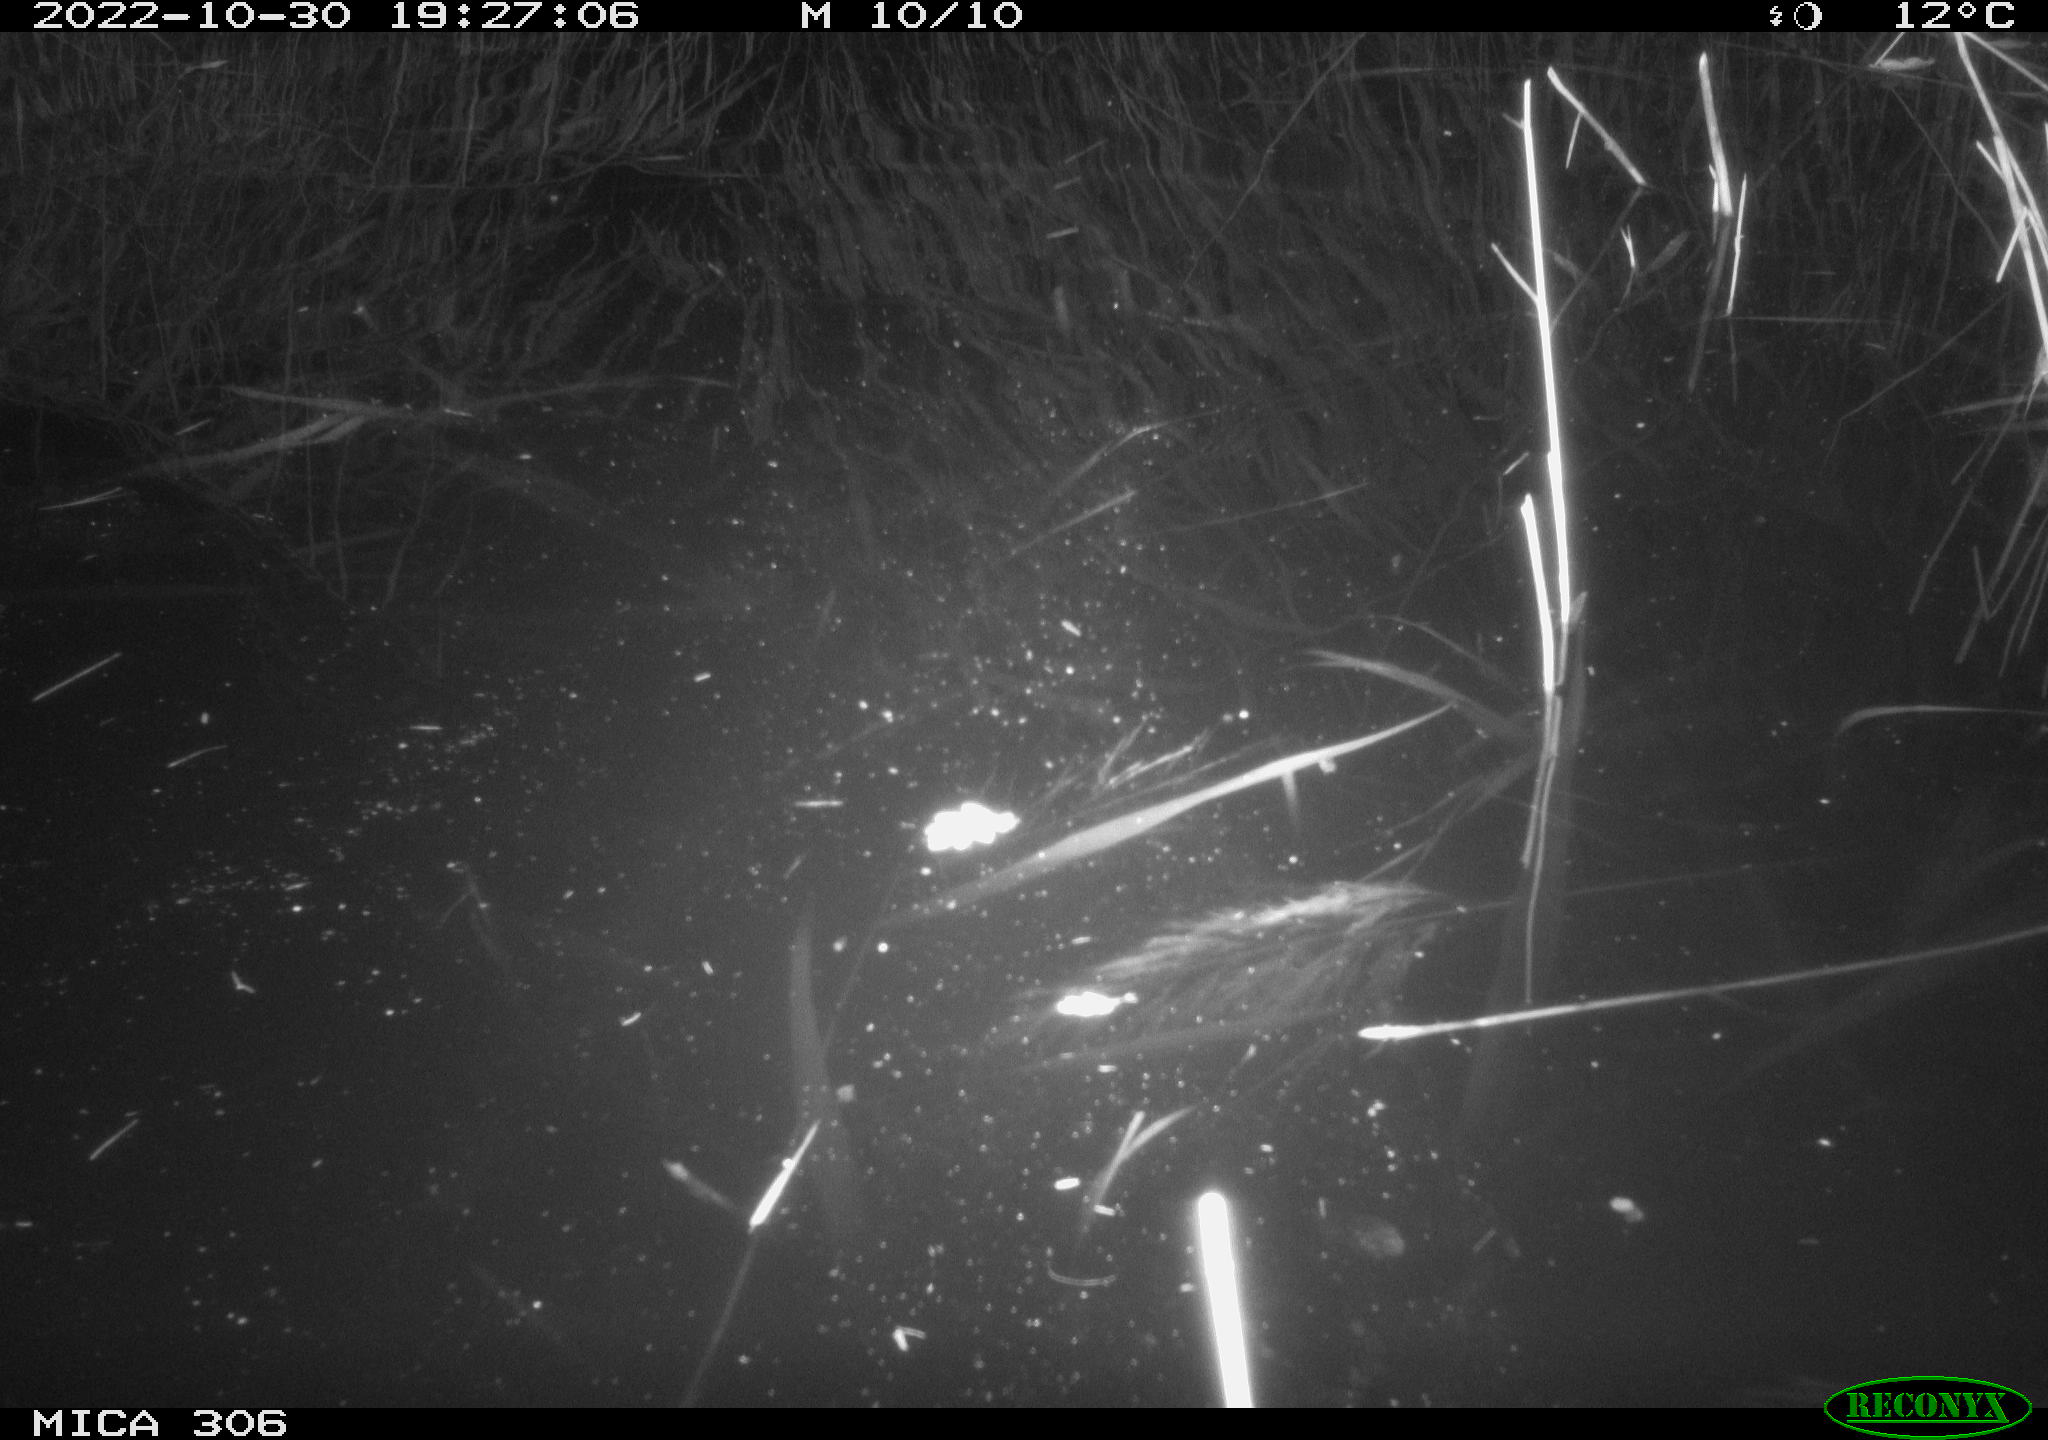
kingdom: Animalia
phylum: Chordata
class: Mammalia
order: Rodentia
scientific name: Rodentia
